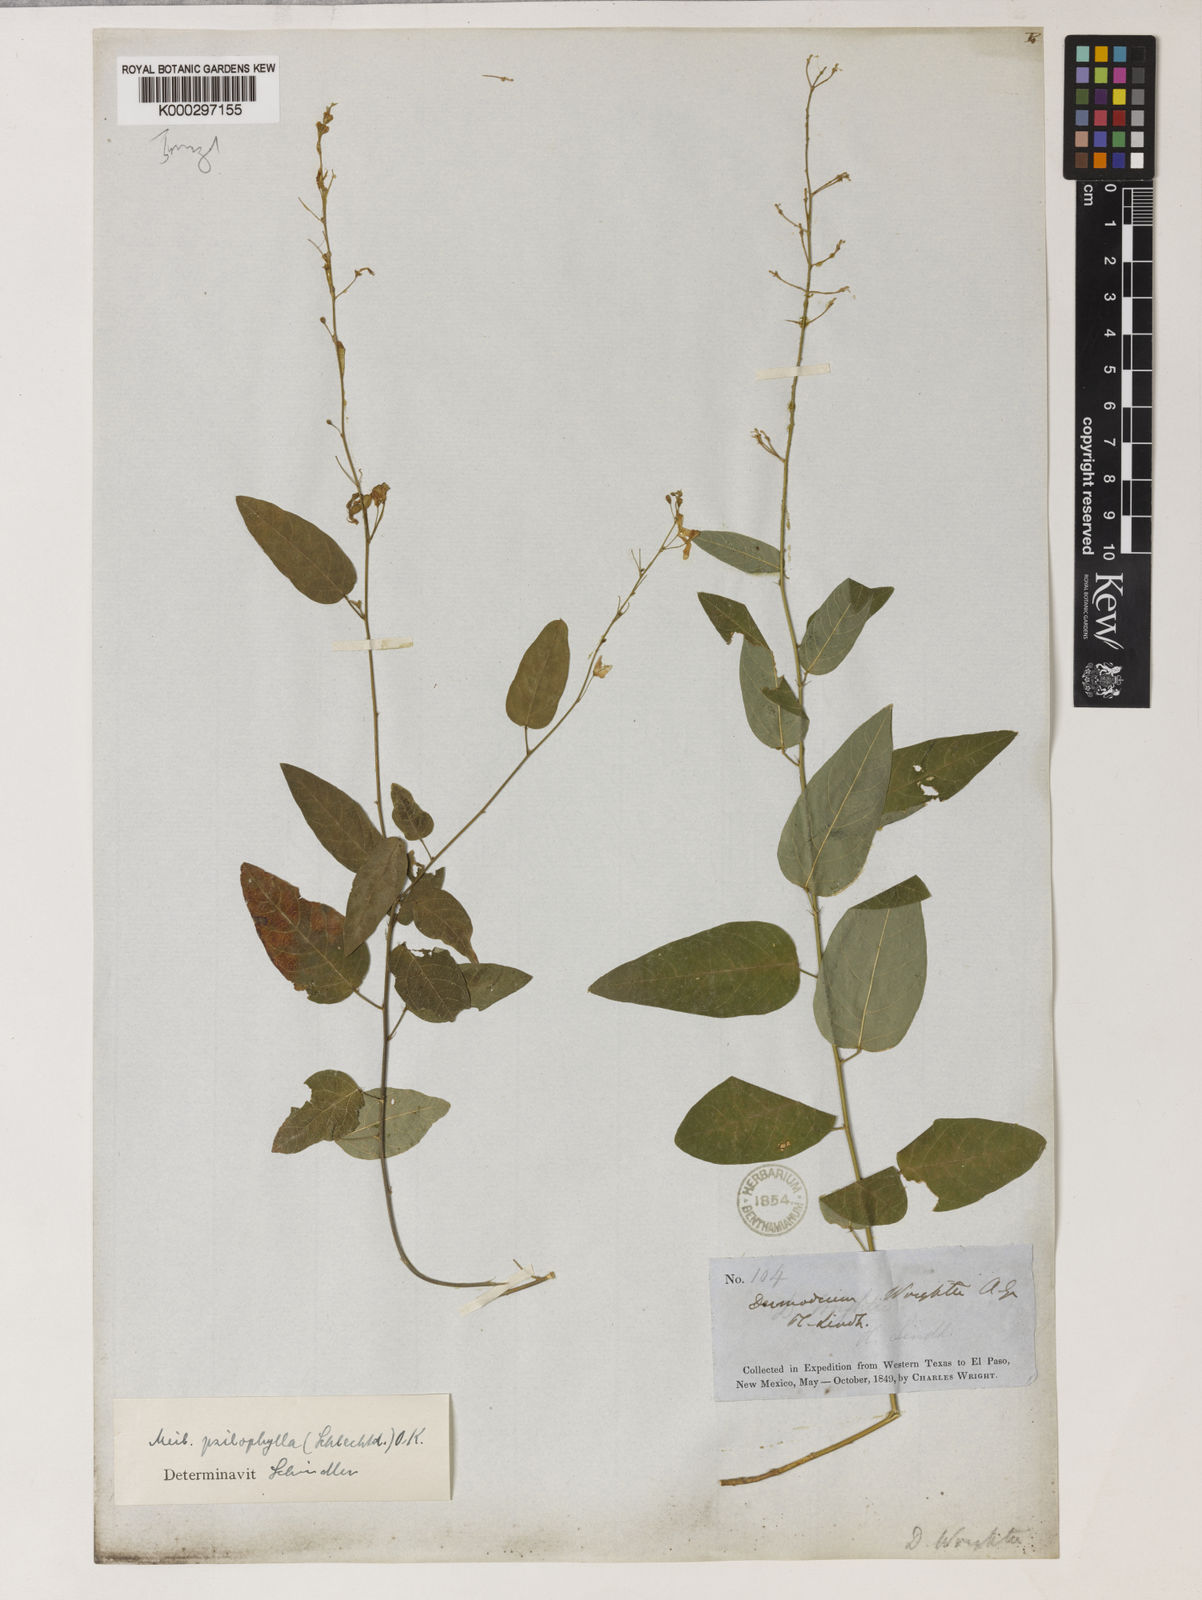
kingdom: Plantae
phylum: Tracheophyta
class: Magnoliopsida
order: Fabales
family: Fabaceae
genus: Desmodium
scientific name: Desmodium psilophyllum
